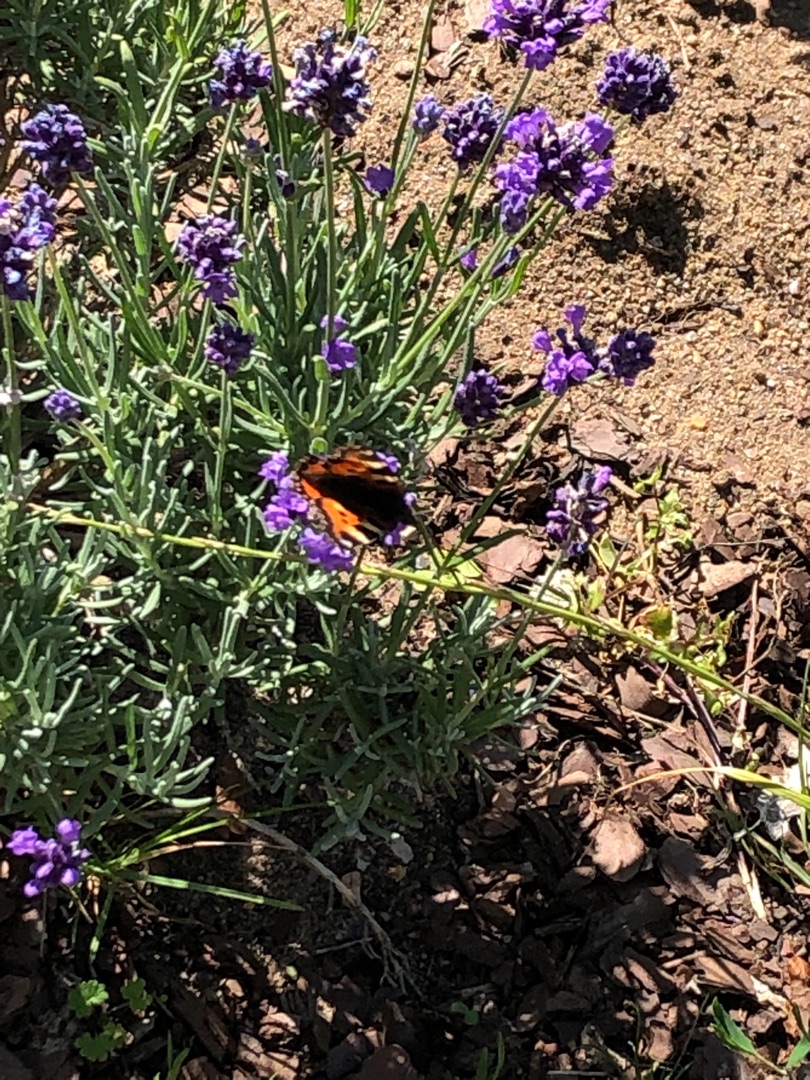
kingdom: Animalia
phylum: Arthropoda
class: Insecta
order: Lepidoptera
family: Nymphalidae
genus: Aglais
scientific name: Aglais urticae
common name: Nældens takvinge
